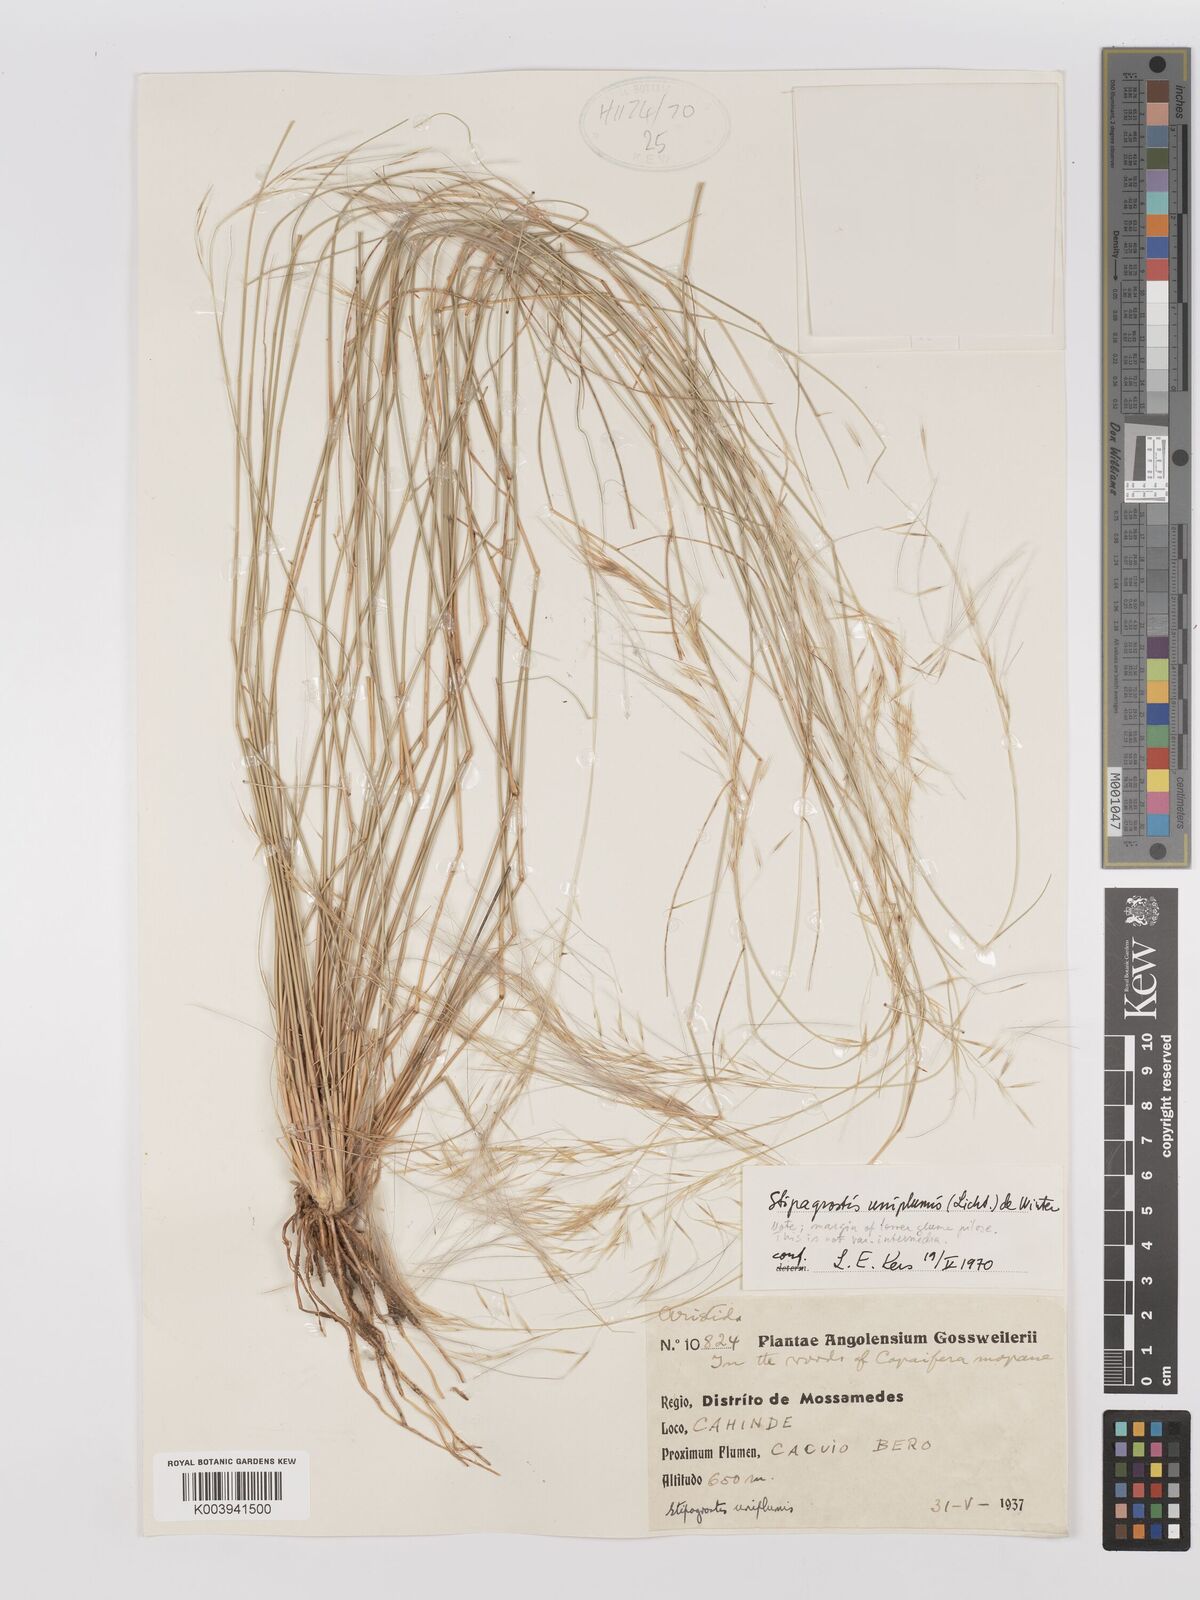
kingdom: Plantae
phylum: Tracheophyta
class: Liliopsida
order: Poales
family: Poaceae
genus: Stipagrostis
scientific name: Stipagrostis uniplumis
